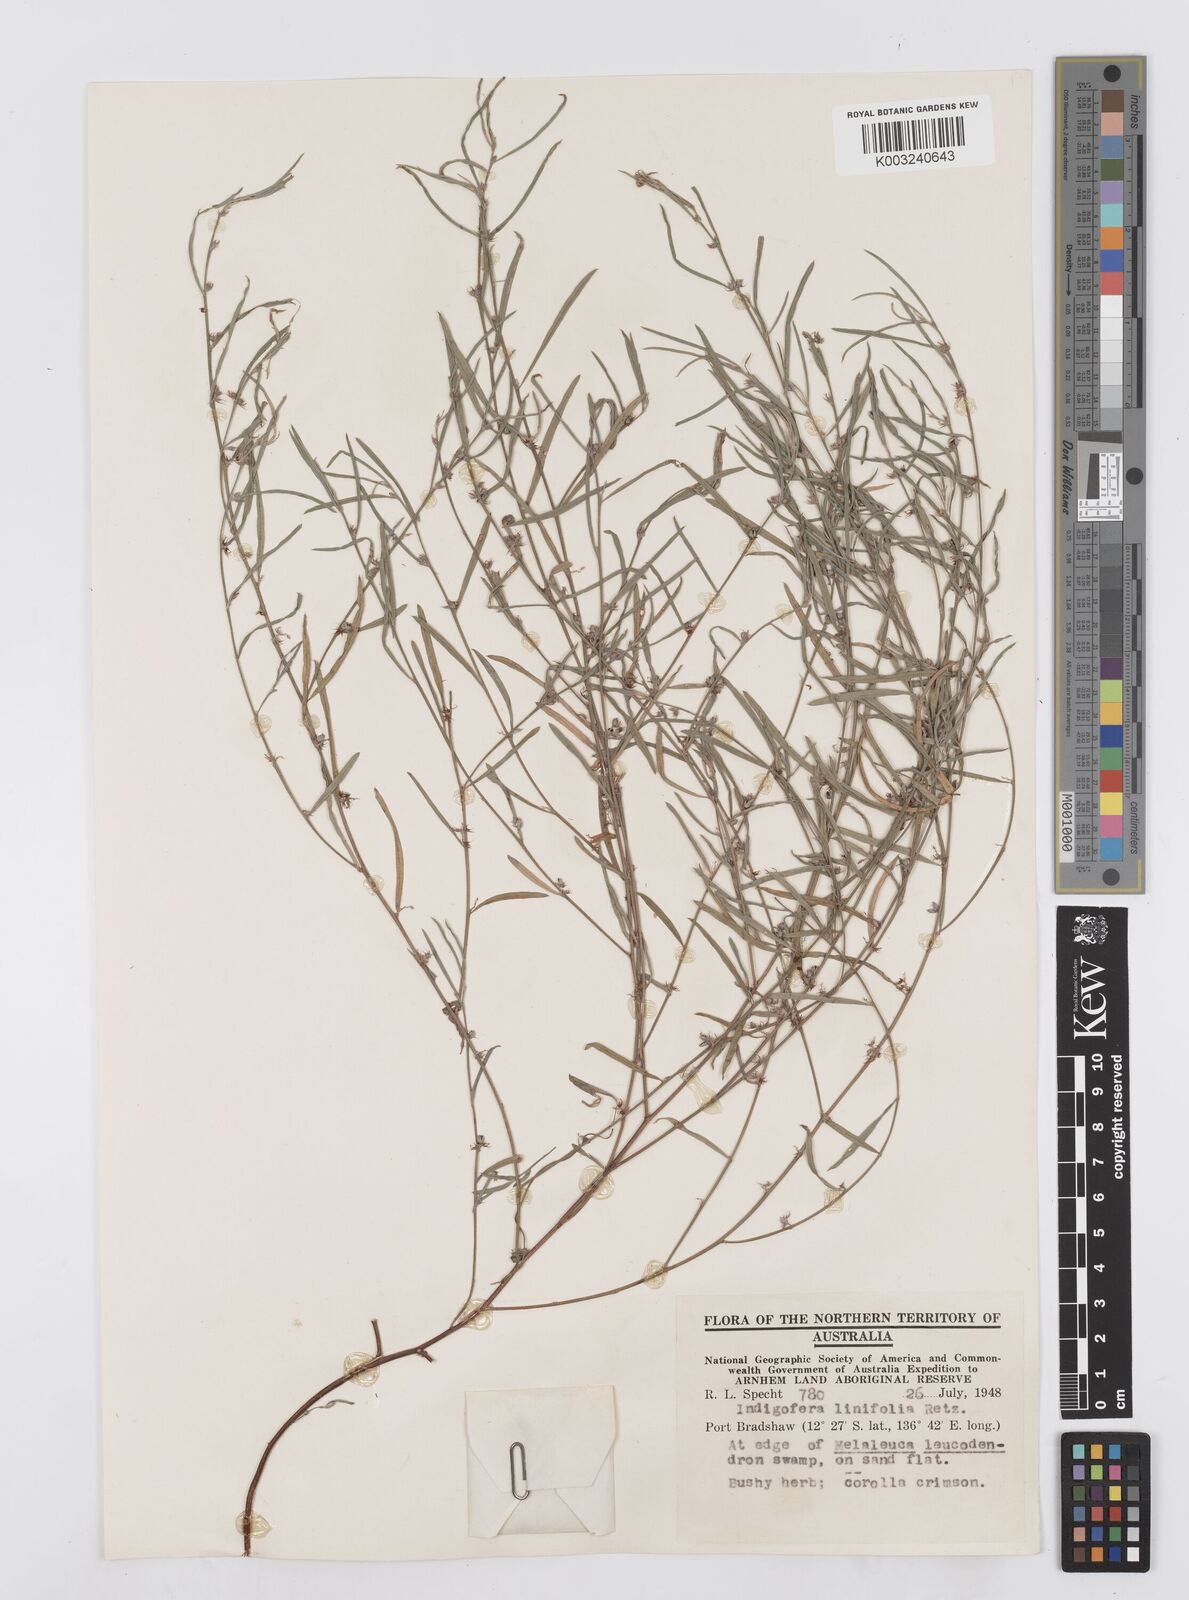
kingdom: Plantae
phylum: Tracheophyta
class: Magnoliopsida
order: Fabales
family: Fabaceae
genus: Indigofera
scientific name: Indigofera linifolia
